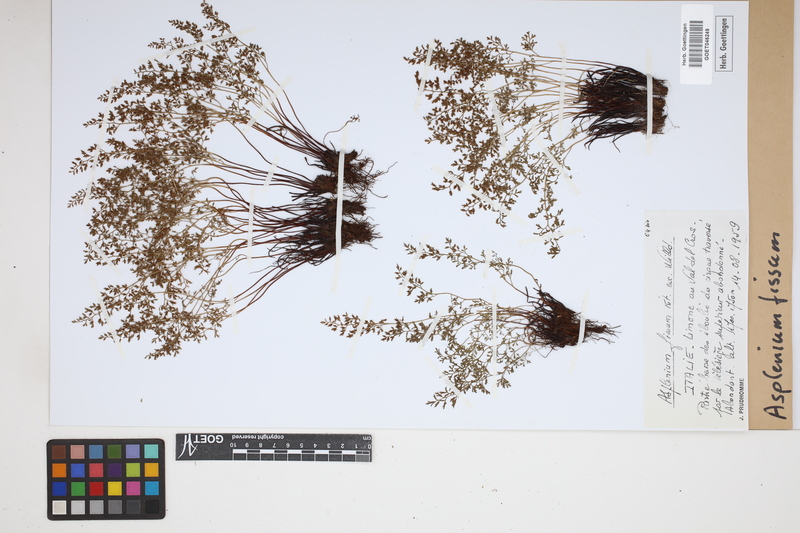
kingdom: Plantae
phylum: Tracheophyta
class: Polypodiopsida
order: Polypodiales
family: Aspleniaceae
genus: Asplenium
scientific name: Asplenium fissum
